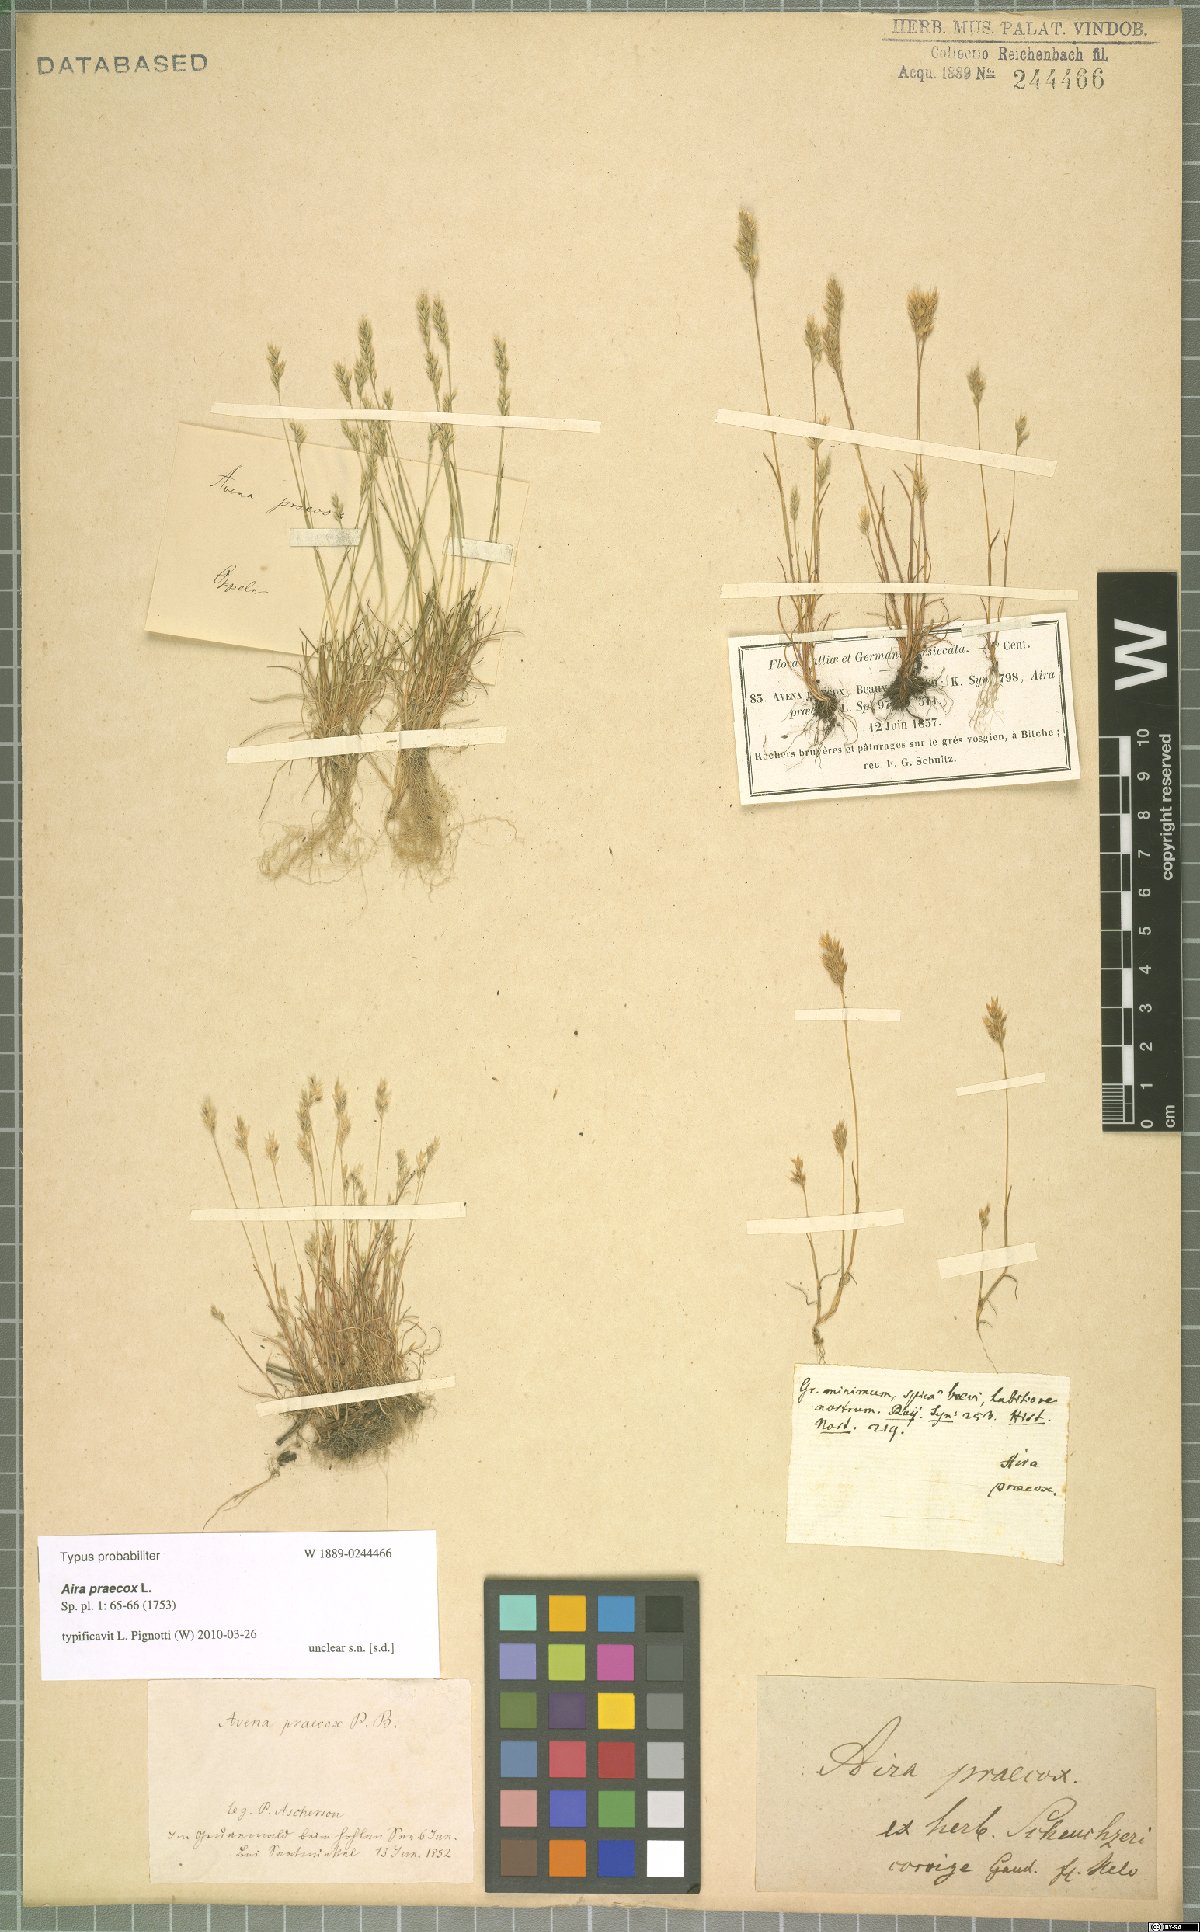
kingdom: Plantae
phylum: Tracheophyta
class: Liliopsida
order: Poales
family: Poaceae
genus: Aira
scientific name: Aira praecox
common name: Early hair-grass
